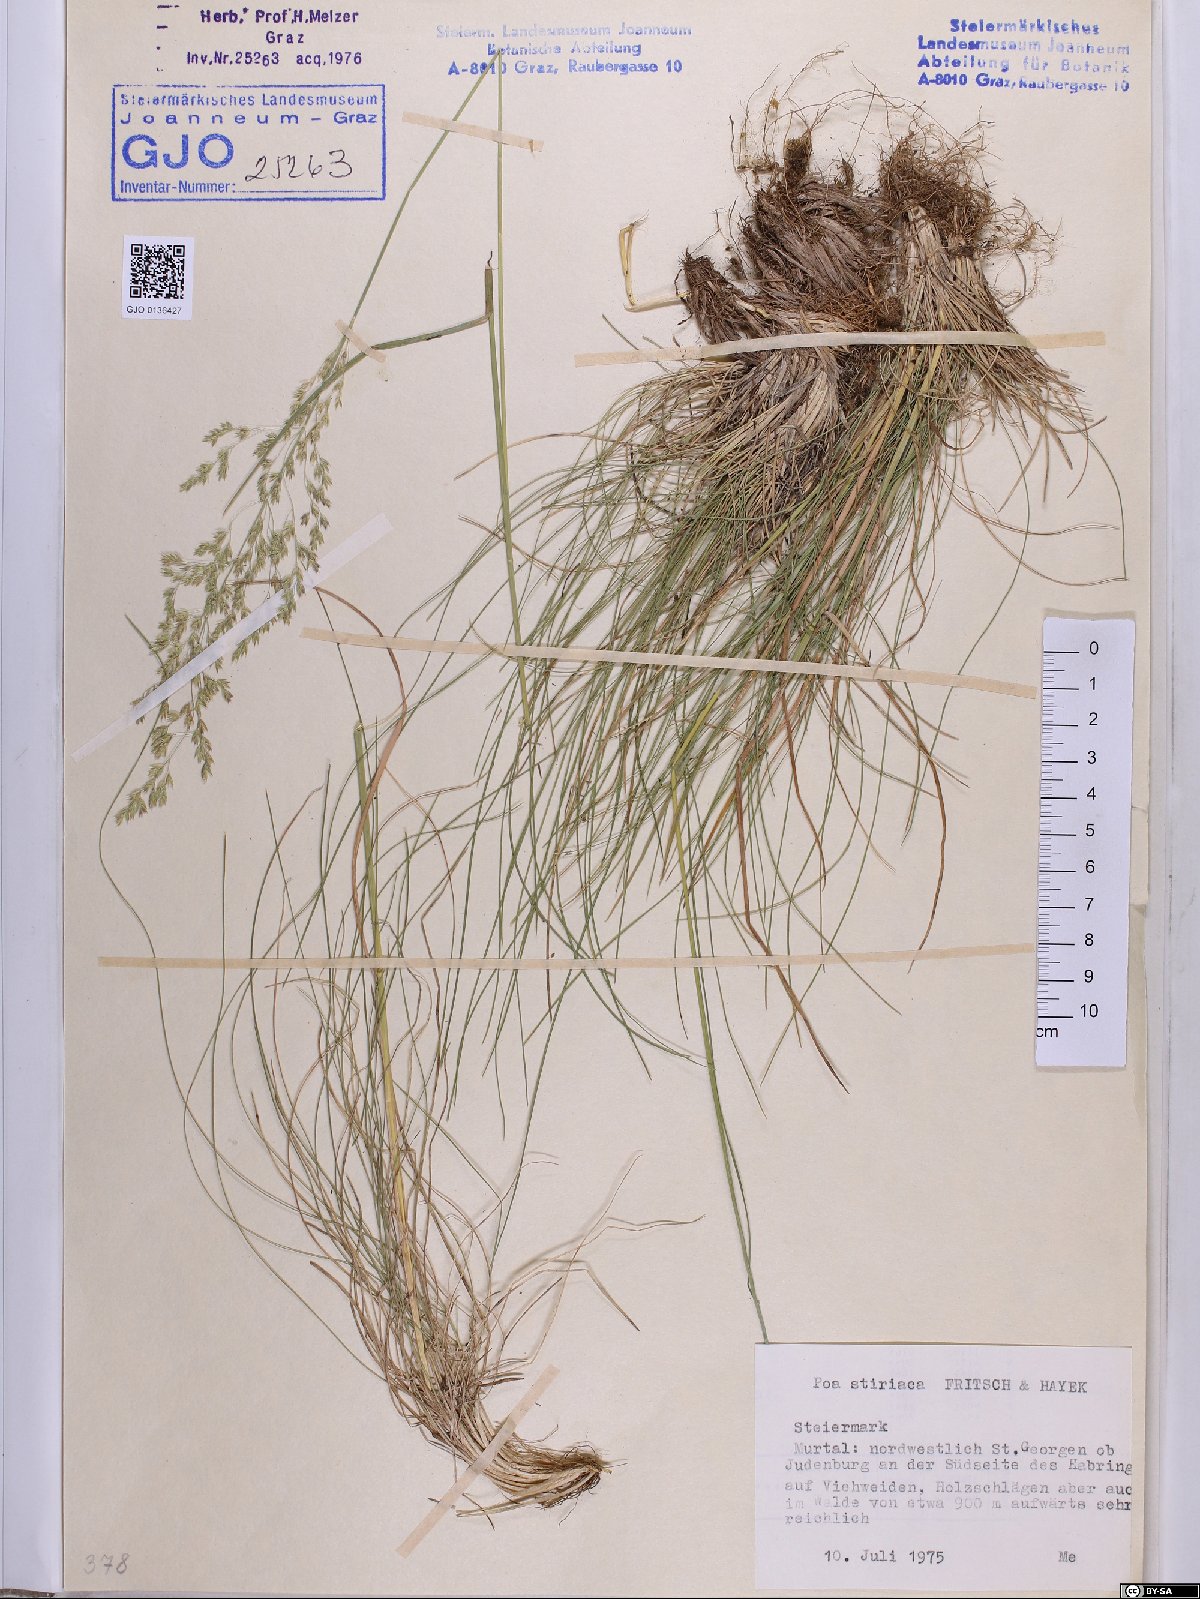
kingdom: Plantae
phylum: Tracheophyta
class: Liliopsida
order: Poales
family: Poaceae
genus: Poa
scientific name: Poa stiriaca
